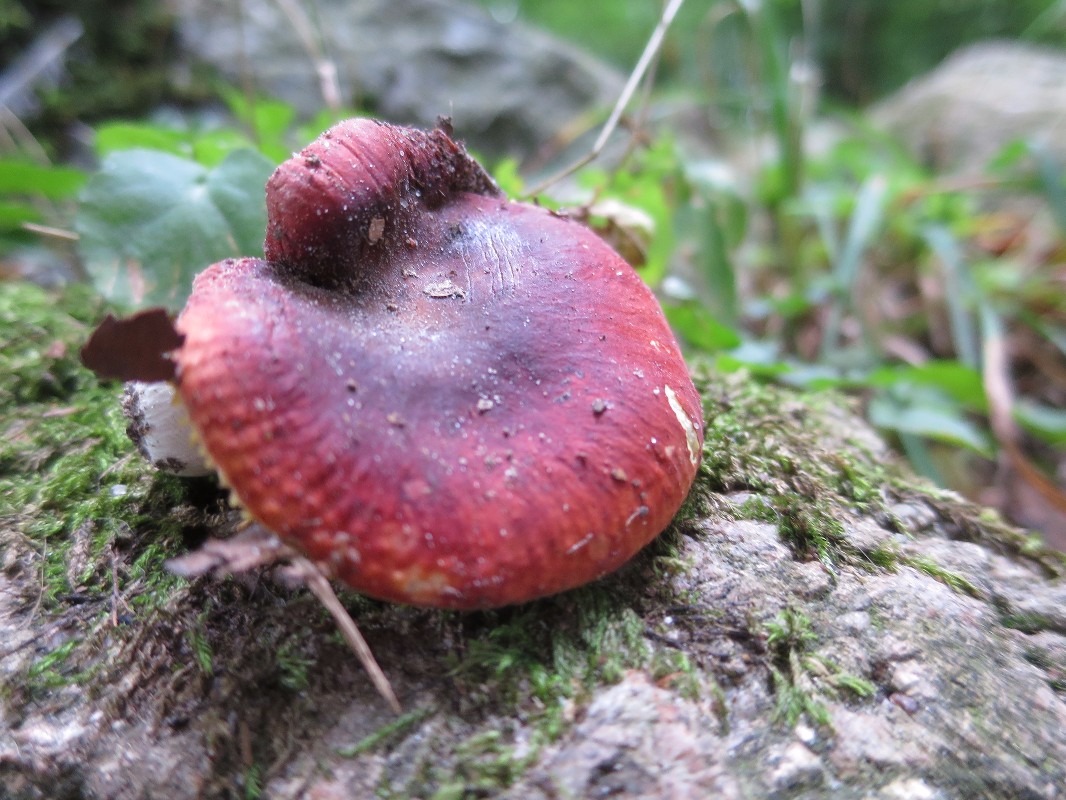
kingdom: Fungi
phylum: Basidiomycota
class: Agaricomycetes
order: Russulales
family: Russulaceae
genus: Russula
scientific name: Russula aurea
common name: gylden skørhat
